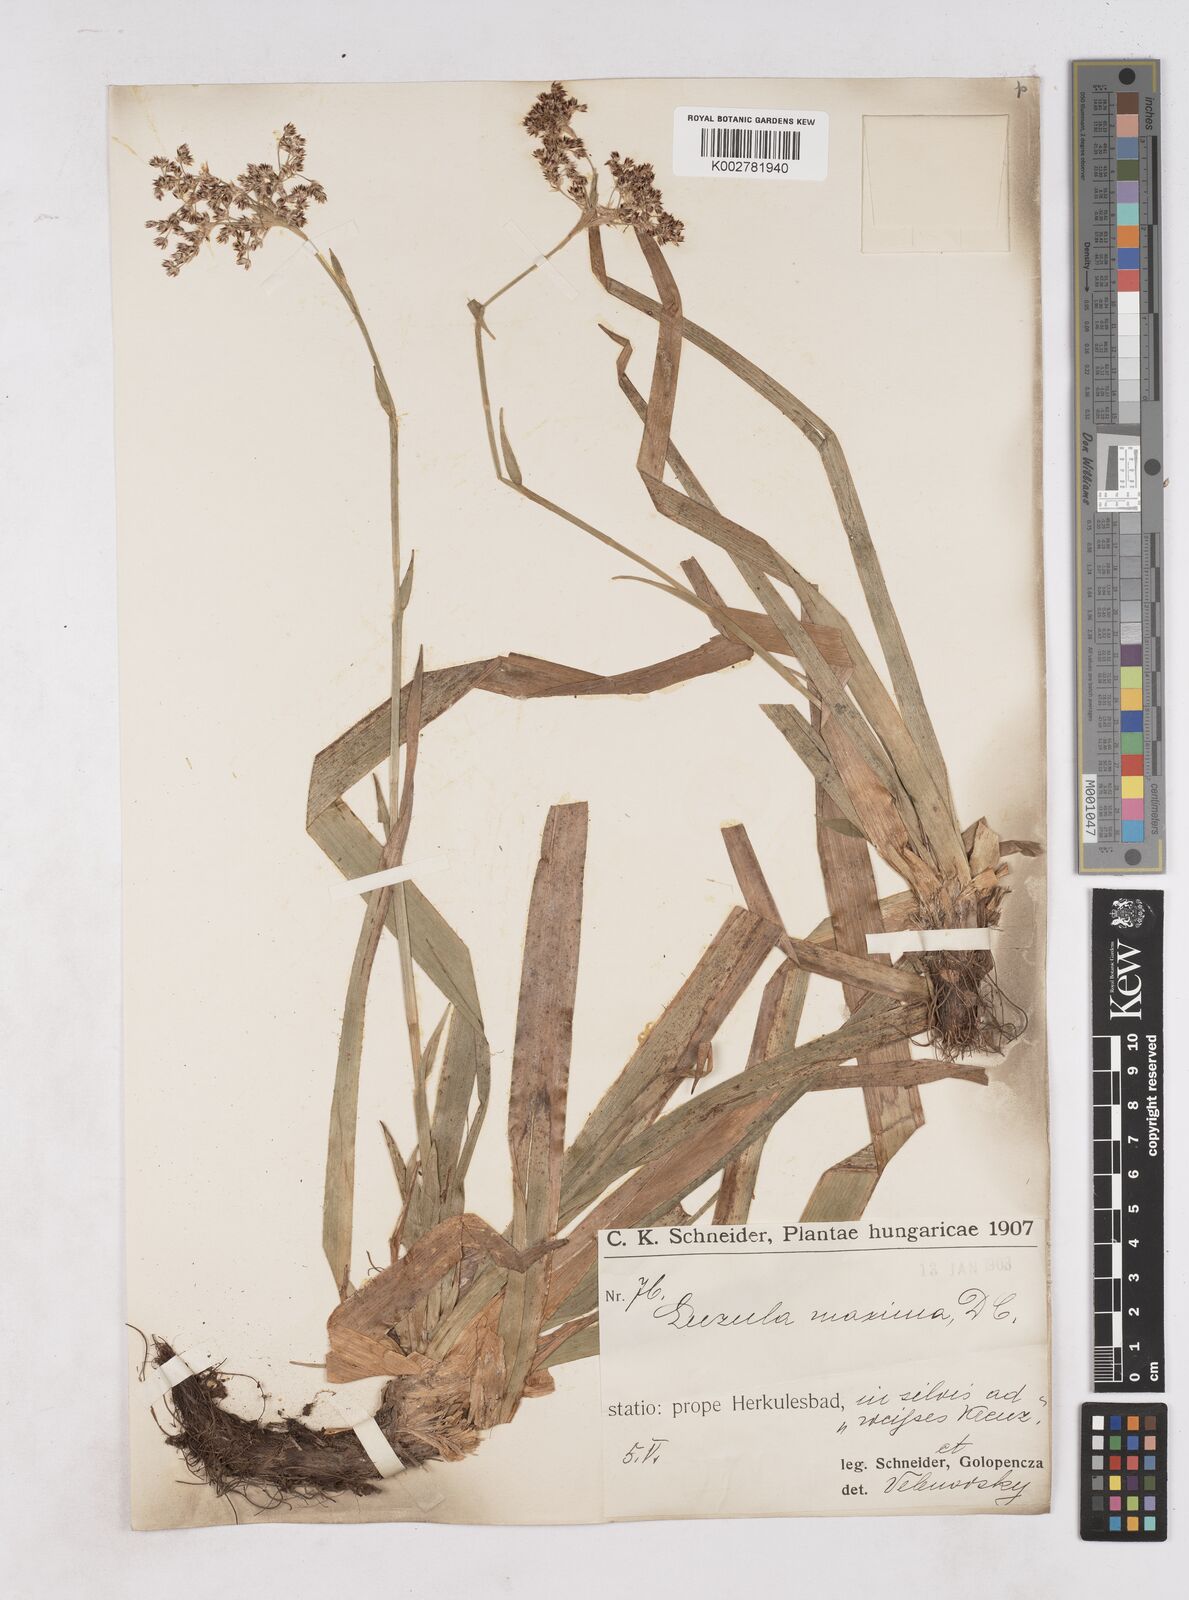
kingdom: Plantae
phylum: Tracheophyta
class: Liliopsida
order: Poales
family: Juncaceae
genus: Luzula
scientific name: Luzula sylvatica
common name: Great wood-rush
